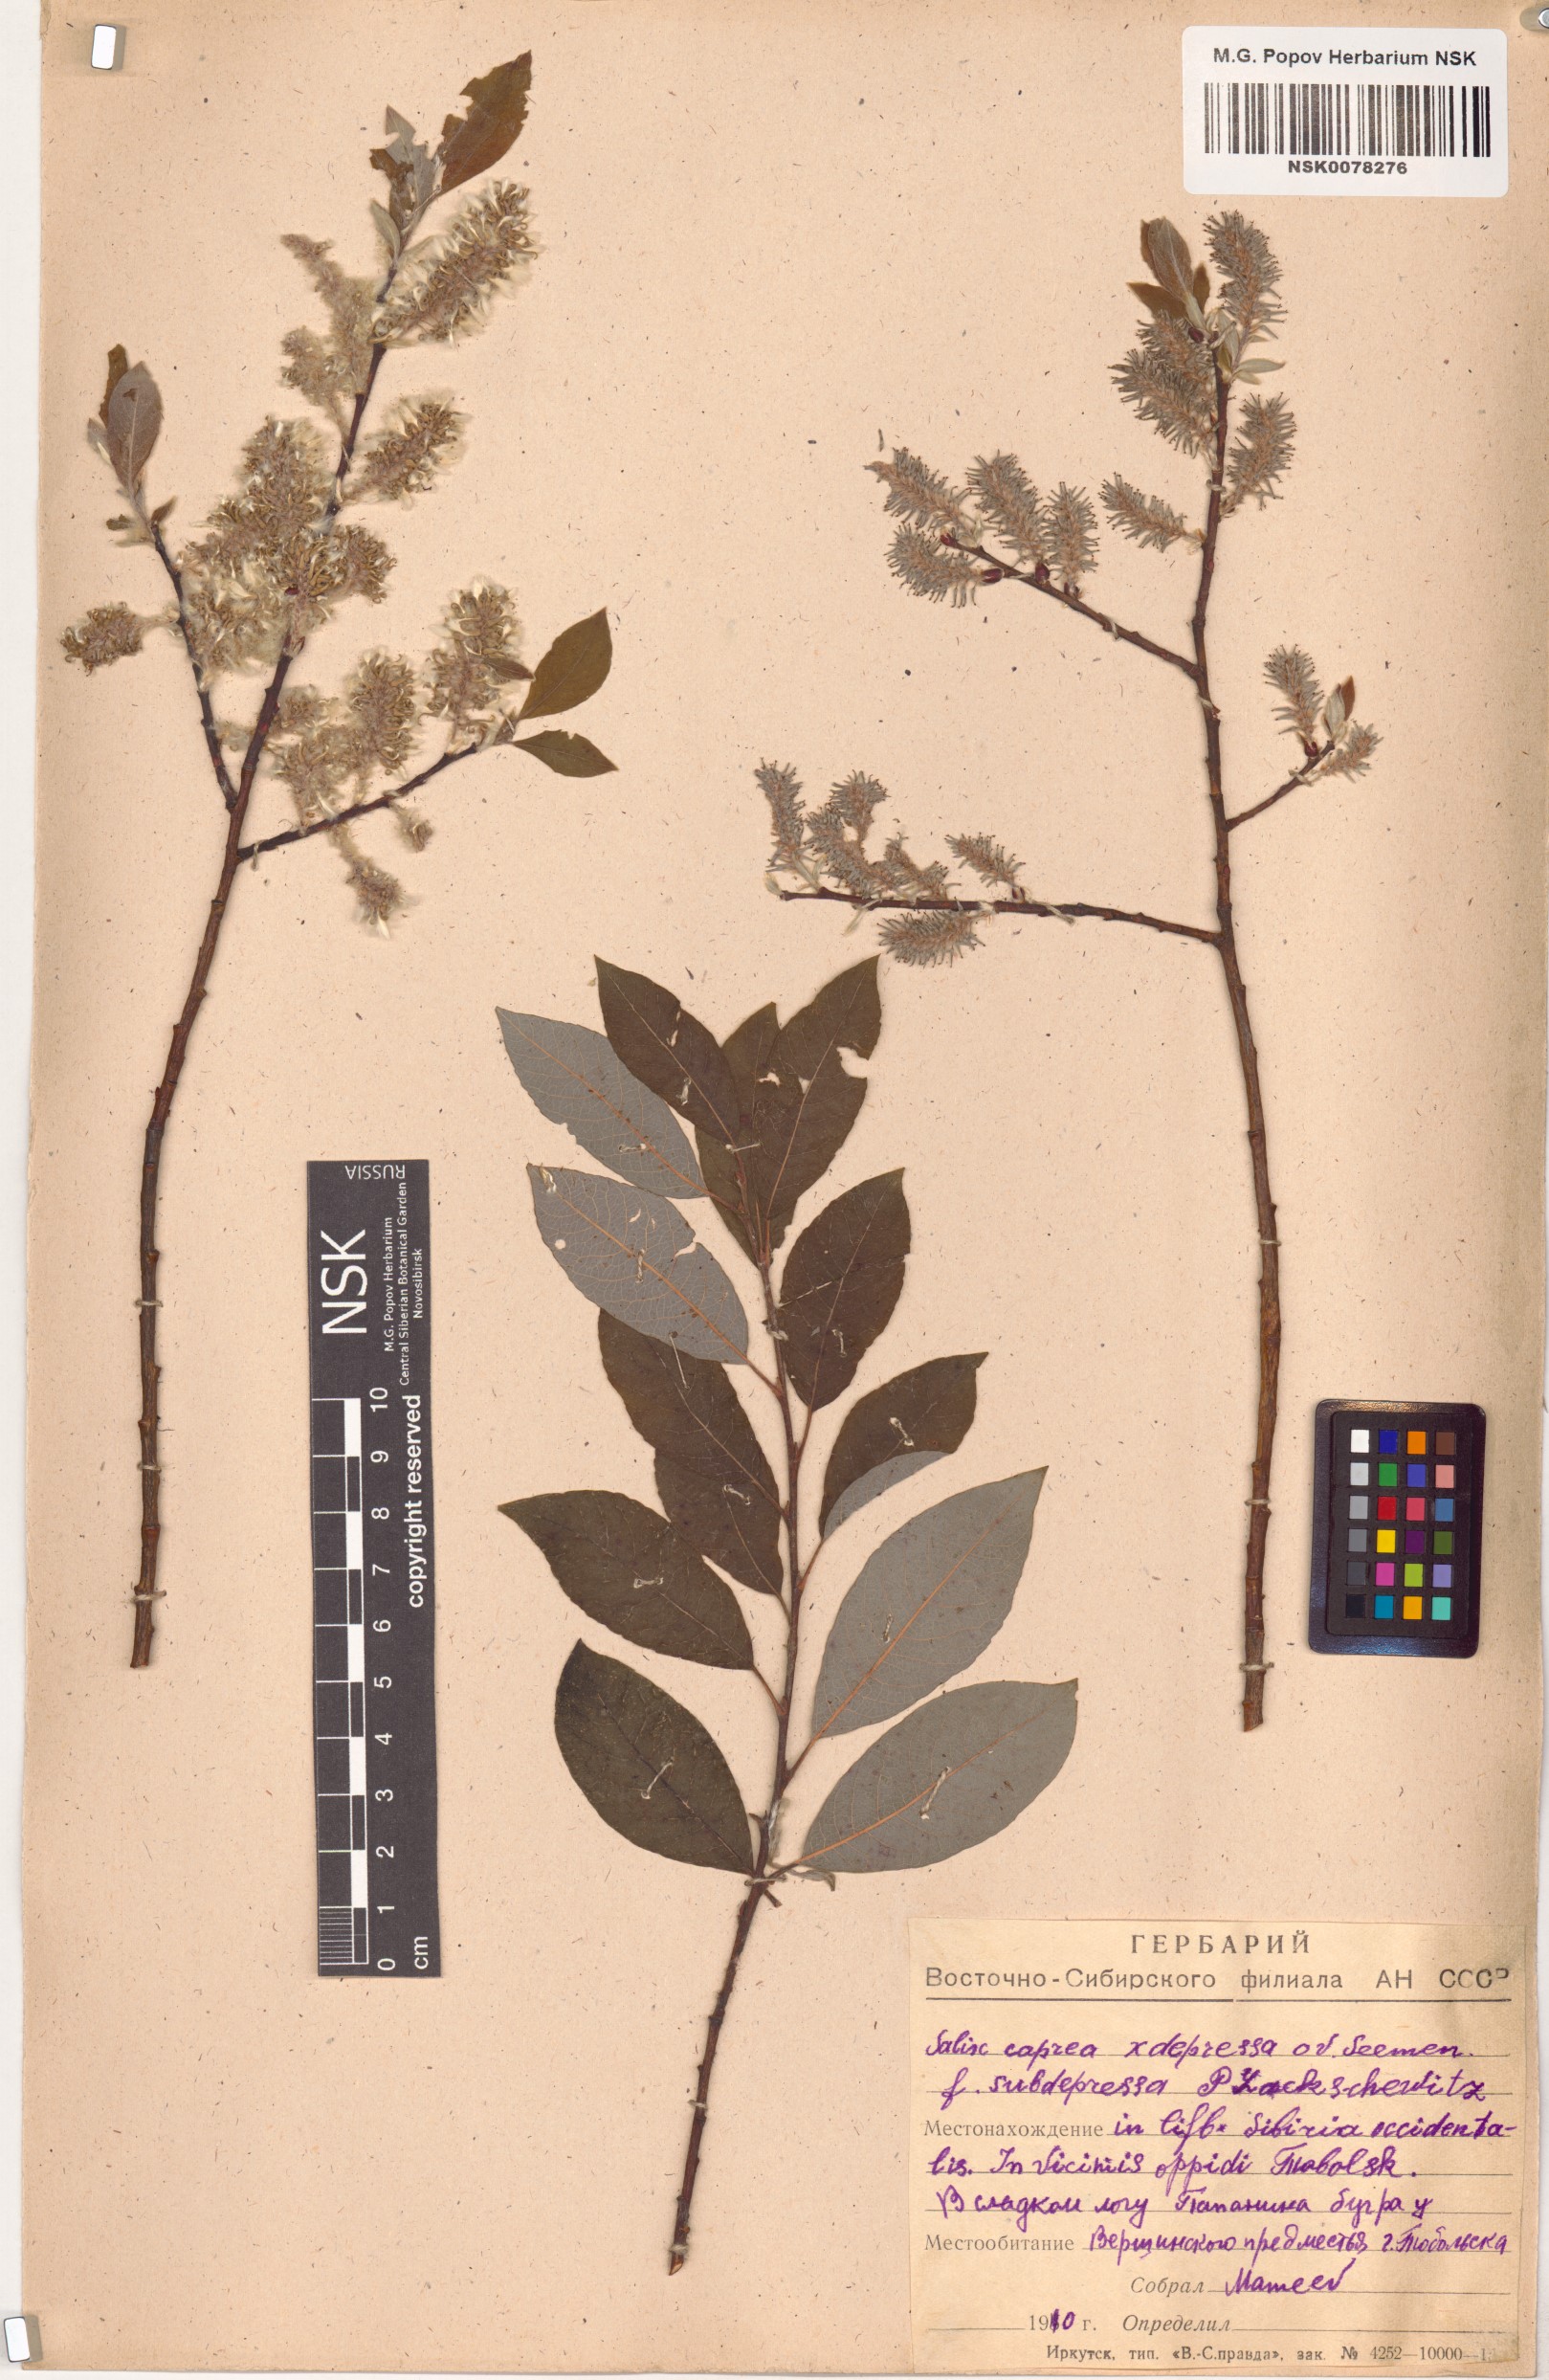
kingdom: Plantae
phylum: Tracheophyta
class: Magnoliopsida
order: Malpighiales
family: Salicaceae
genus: Salix
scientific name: Salix caprea
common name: Goat willow
